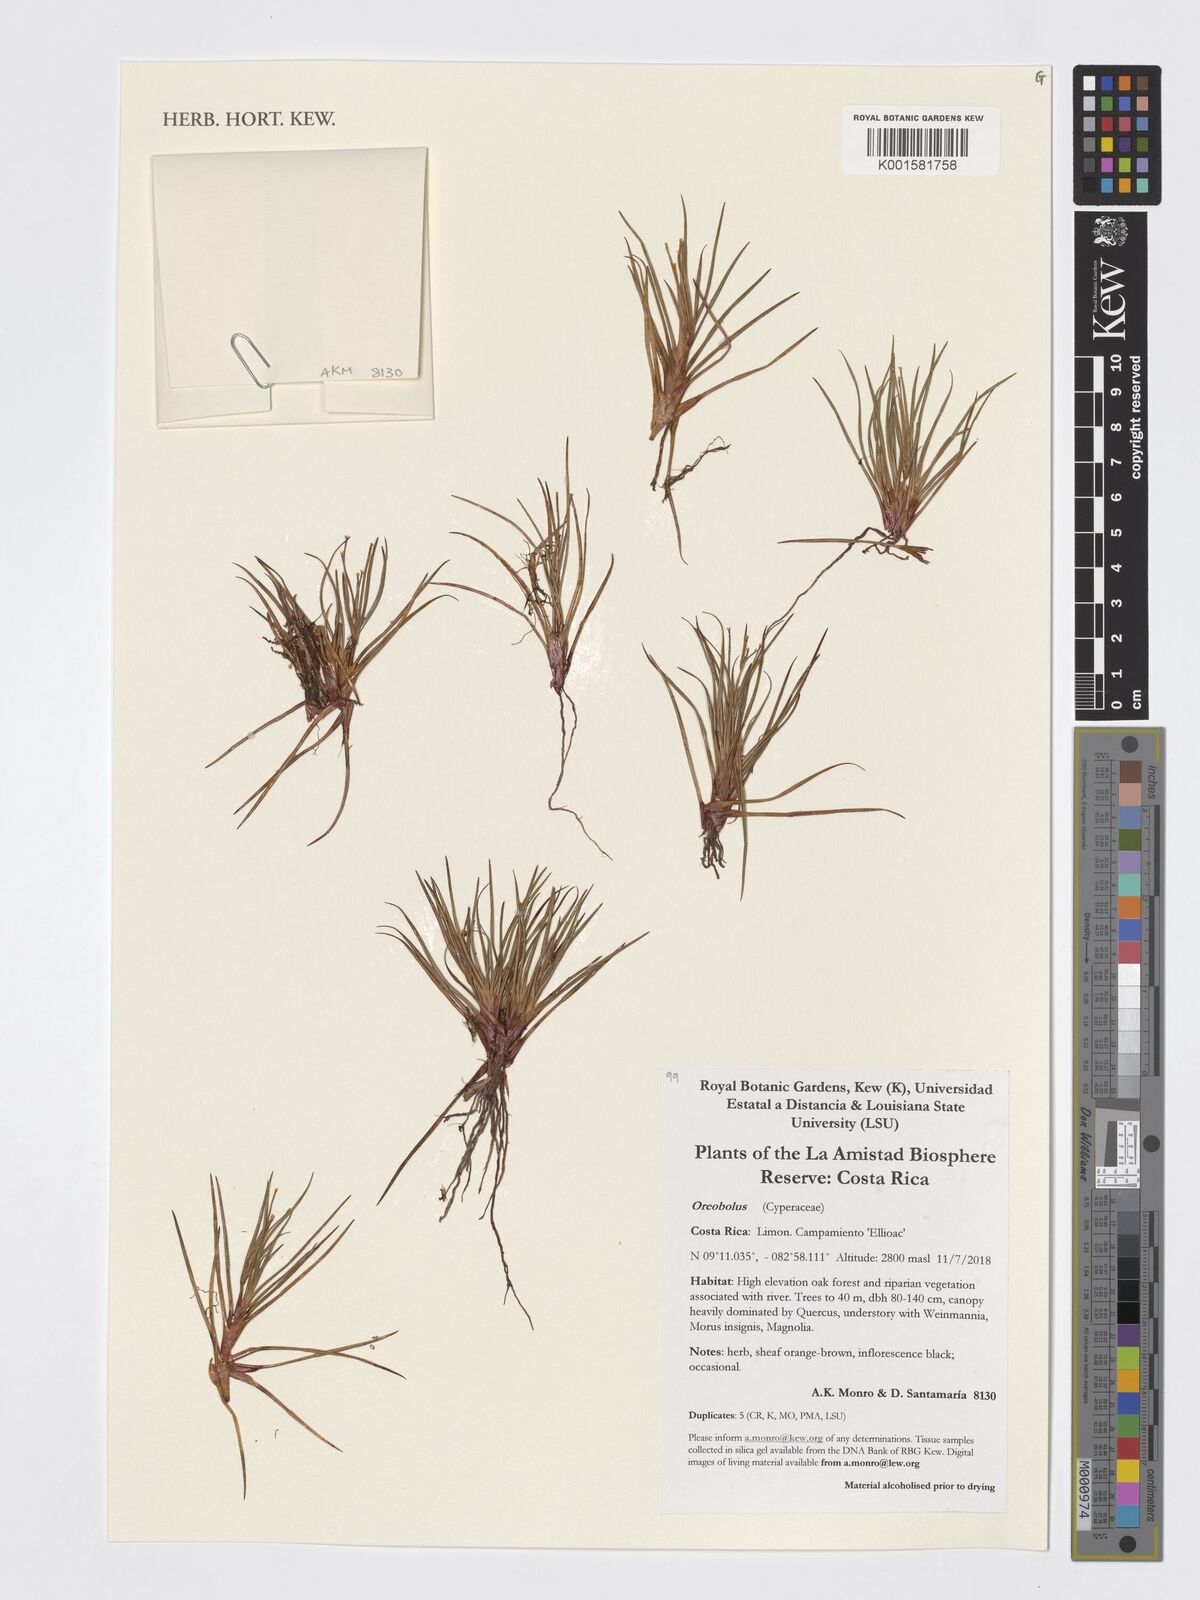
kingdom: Plantae
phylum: Tracheophyta
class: Liliopsida
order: Poales
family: Cyperaceae
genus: Oreobolus
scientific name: Oreobolus
